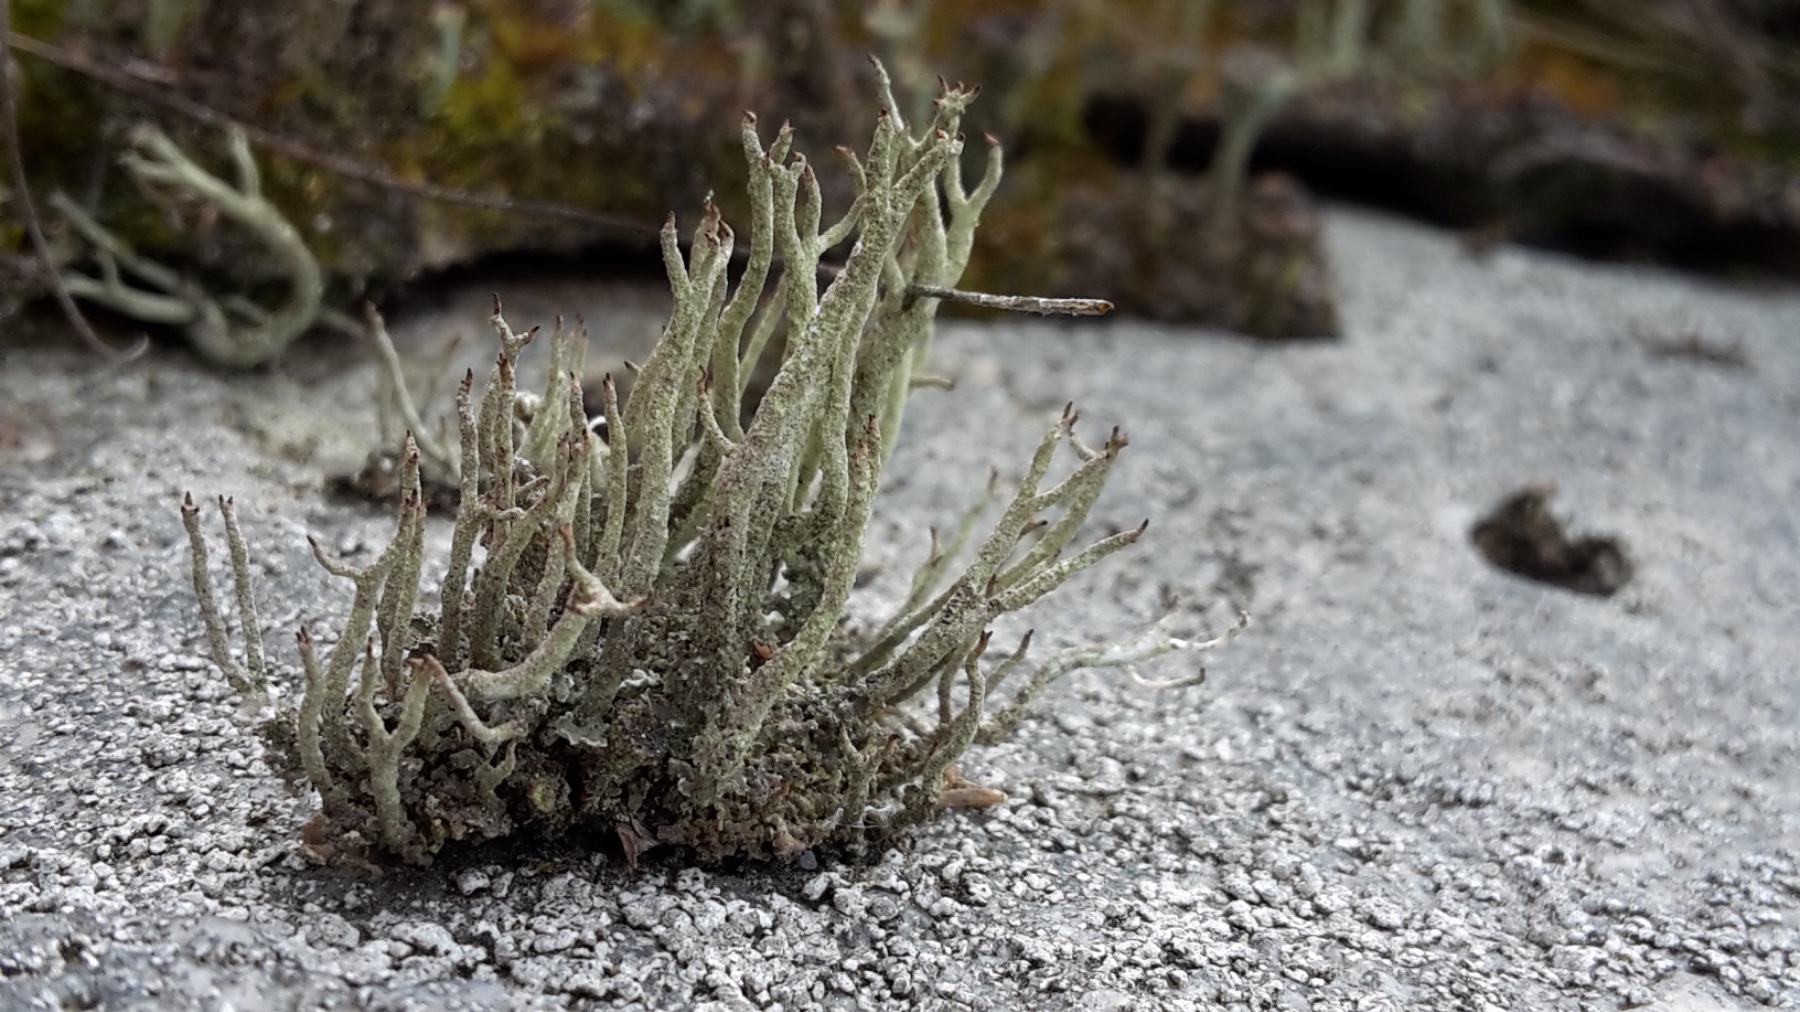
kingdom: Fungi
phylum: Ascomycota
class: Lecanoromycetes
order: Lecanorales
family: Cladoniaceae
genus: Cladonia
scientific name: Cladonia glauca
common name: grågrøn bægerlav
